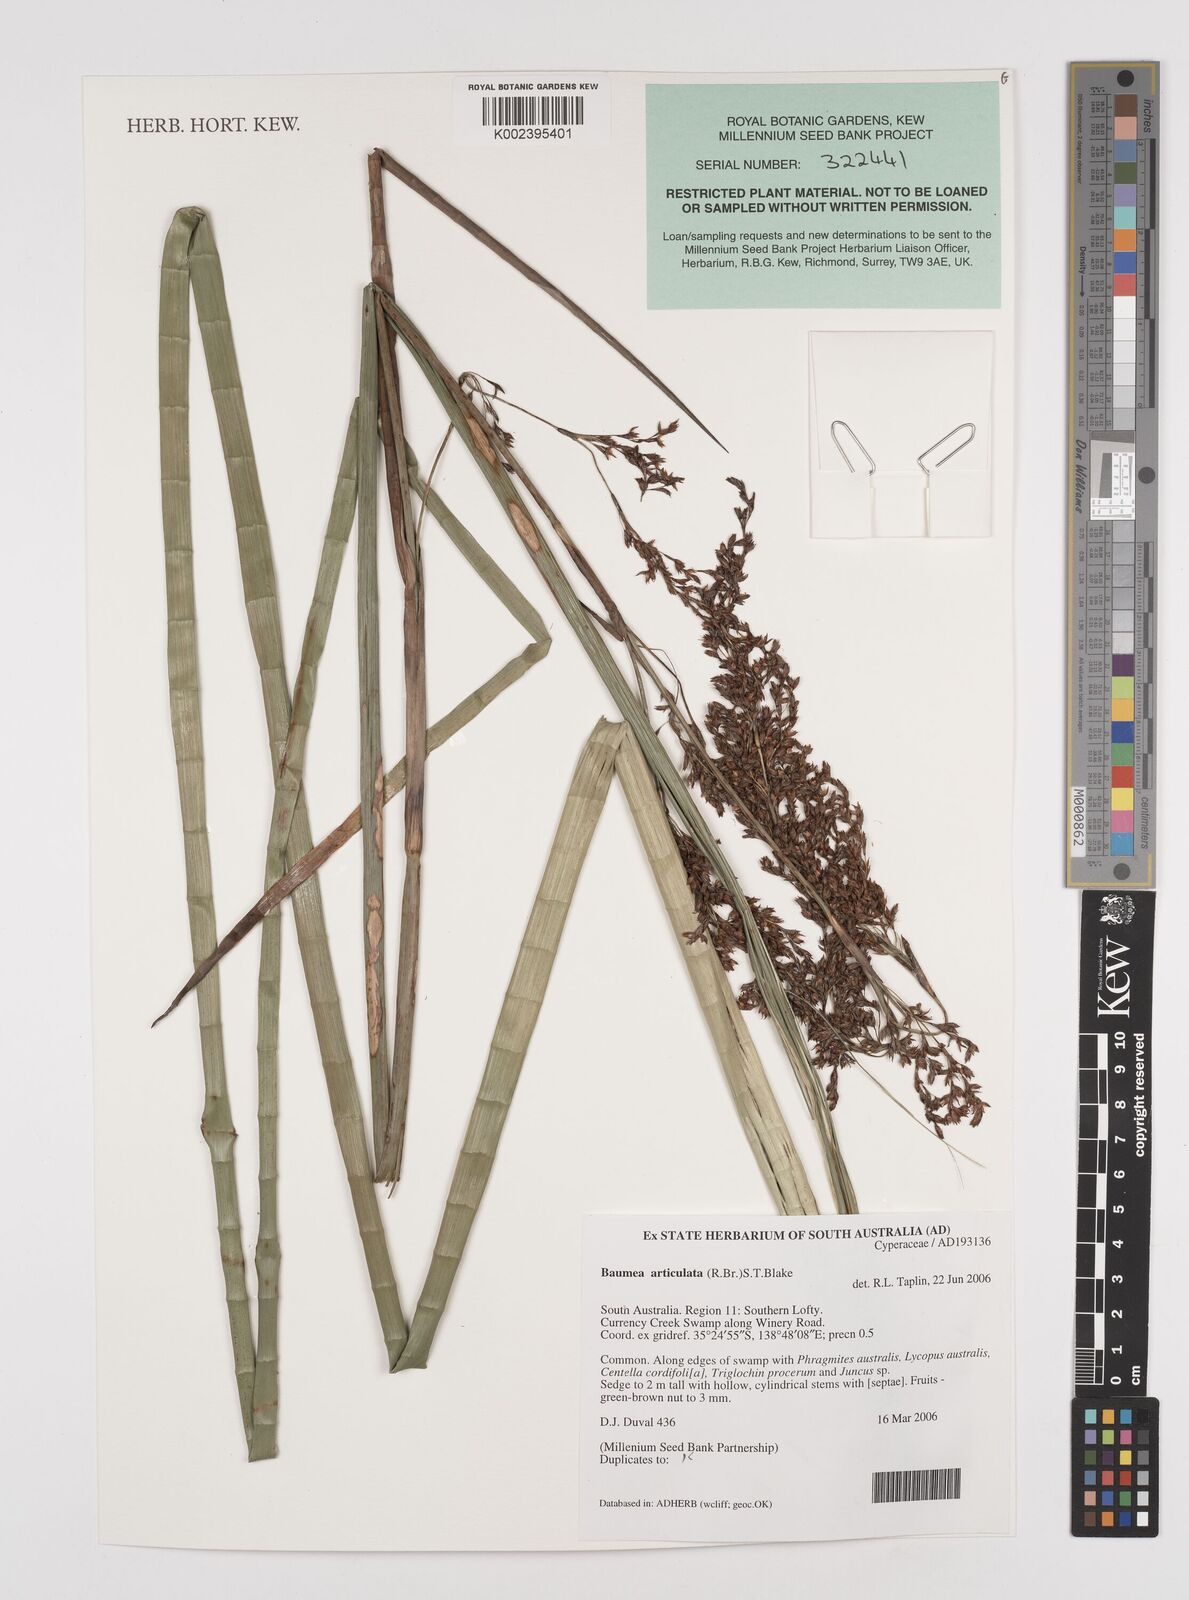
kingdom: Plantae
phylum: Tracheophyta
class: Liliopsida
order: Poales
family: Cyperaceae
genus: Machaerina
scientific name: Machaerina articulata
